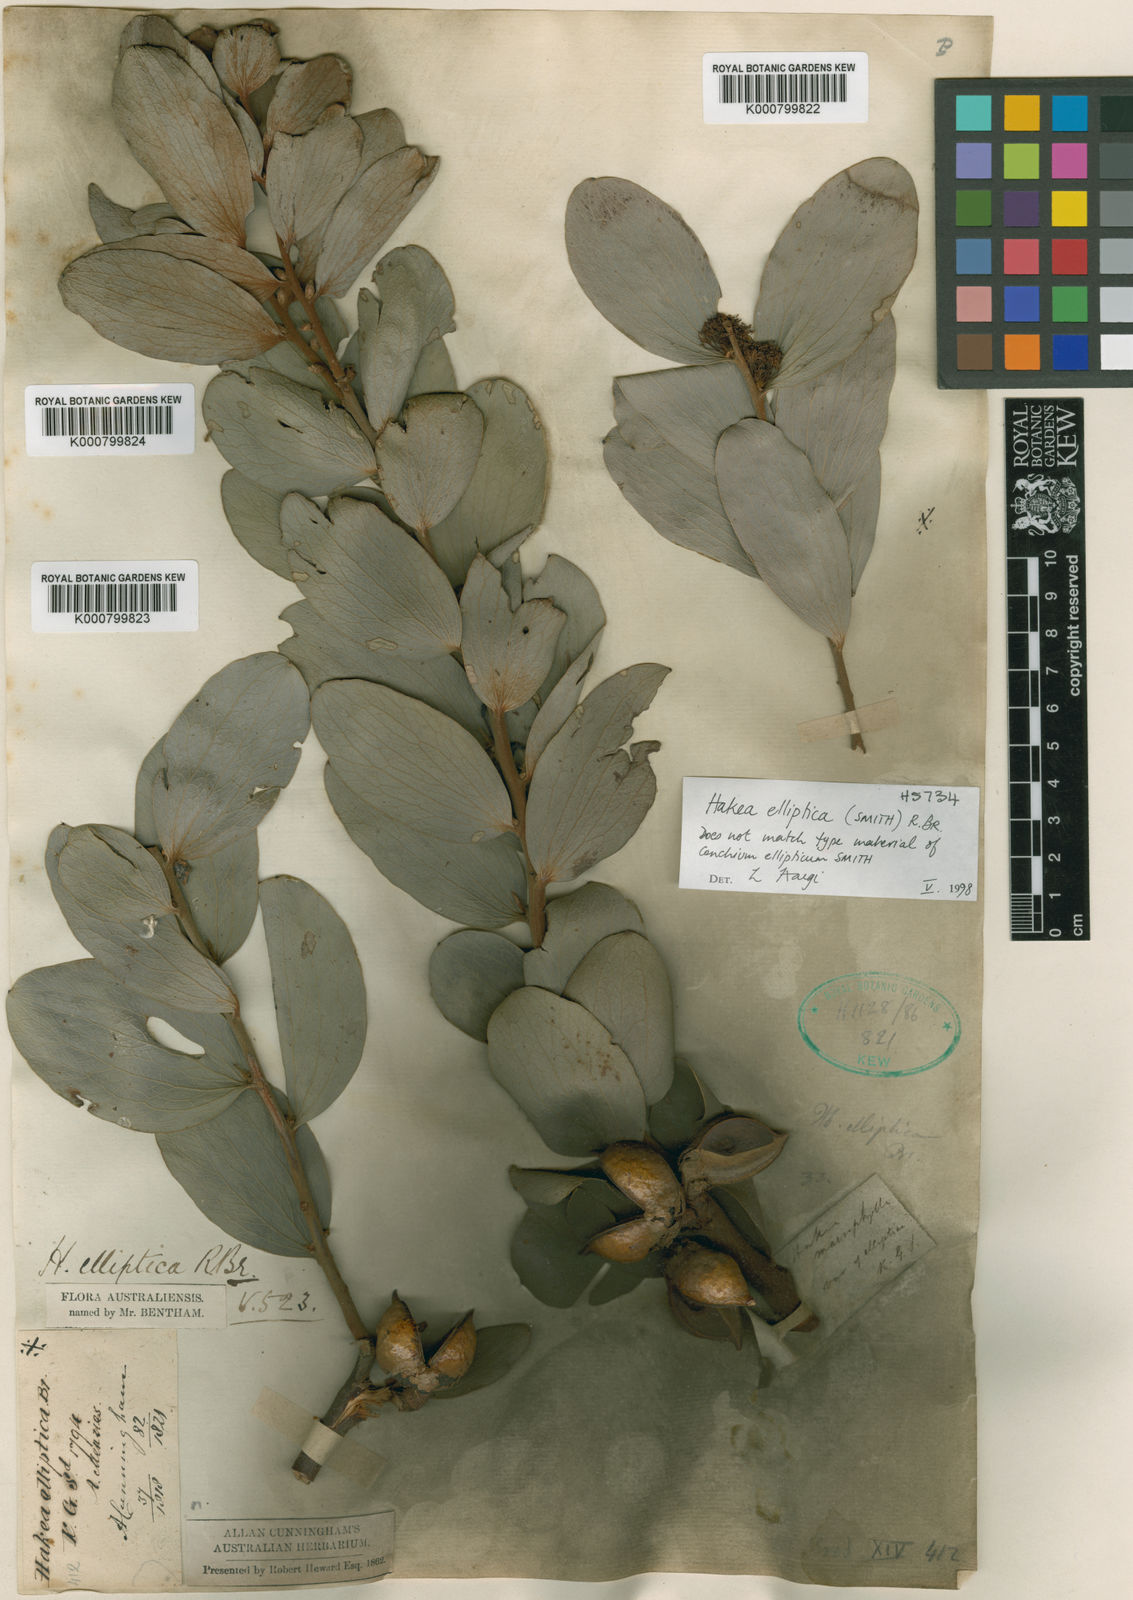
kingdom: Plantae
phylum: Tracheophyta
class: Magnoliopsida
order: Proteales
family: Proteaceae
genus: Hakea
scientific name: Hakea elliptica
